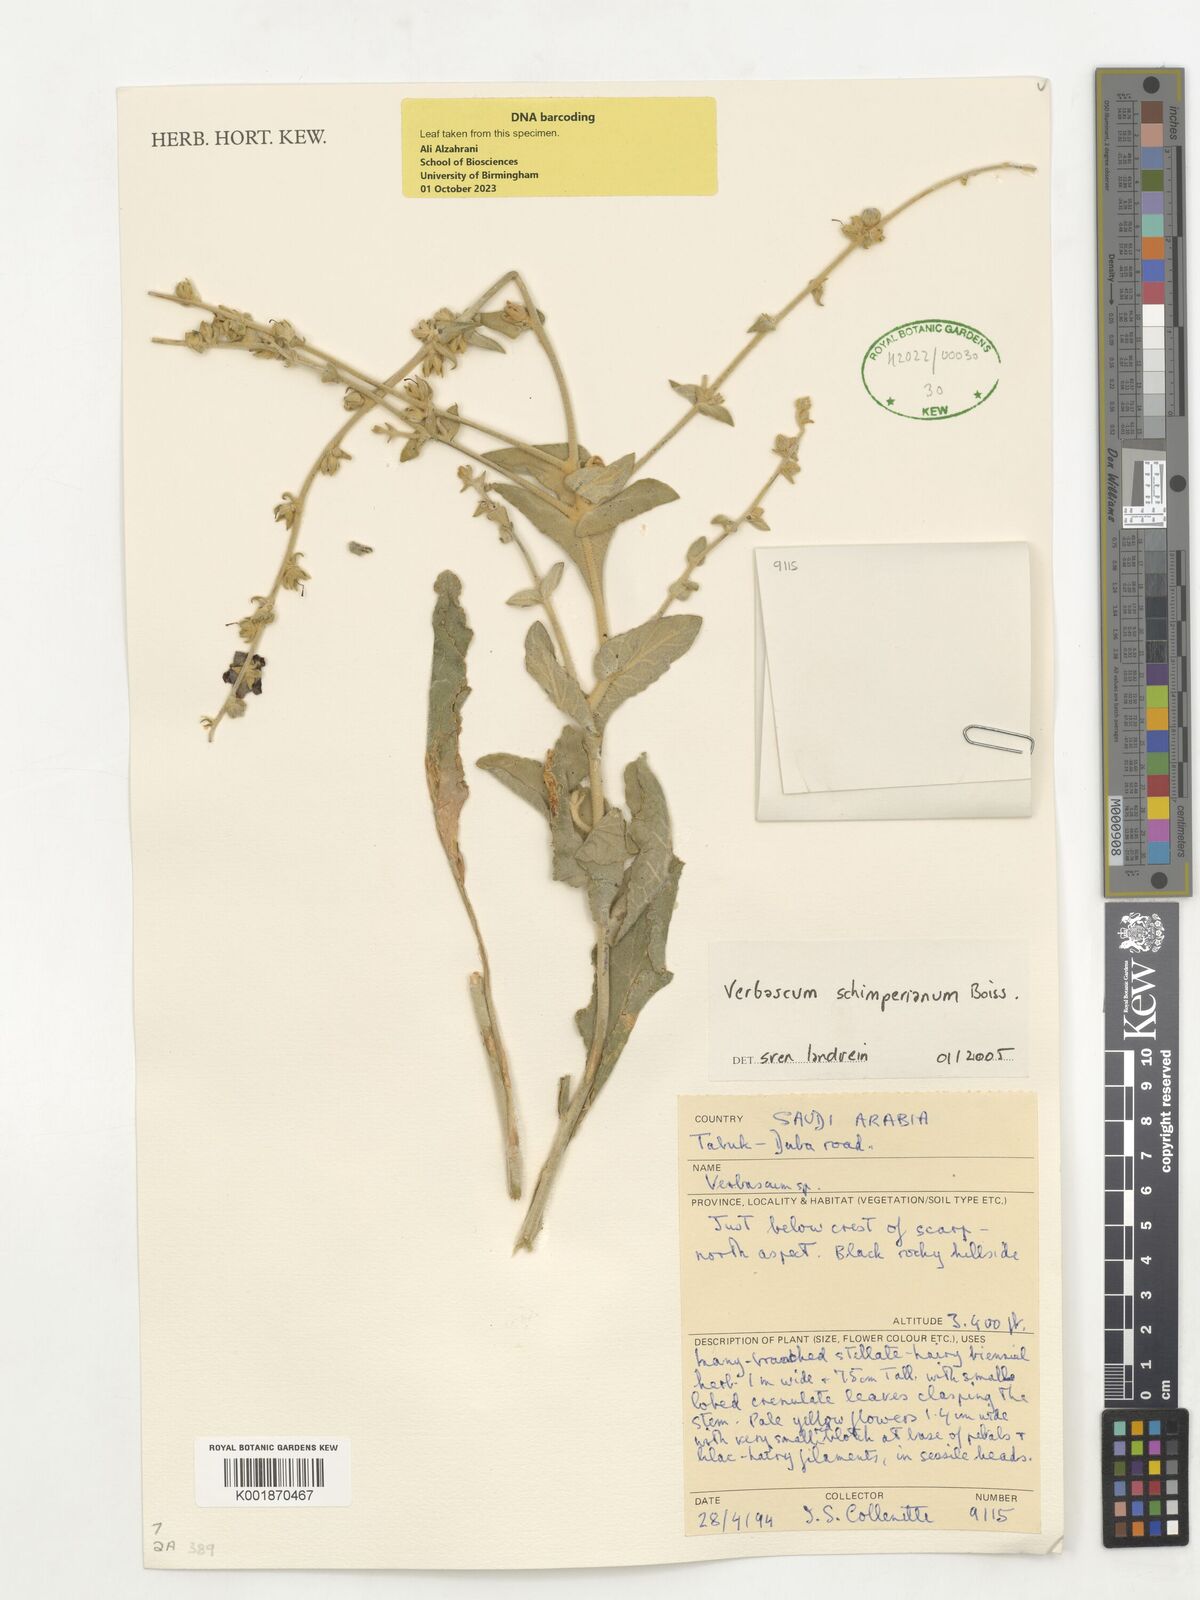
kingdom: Plantae
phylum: Tracheophyta
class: Magnoliopsida
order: Lamiales
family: Scrophulariaceae
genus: Verbascum
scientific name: Verbascum schimperianum
